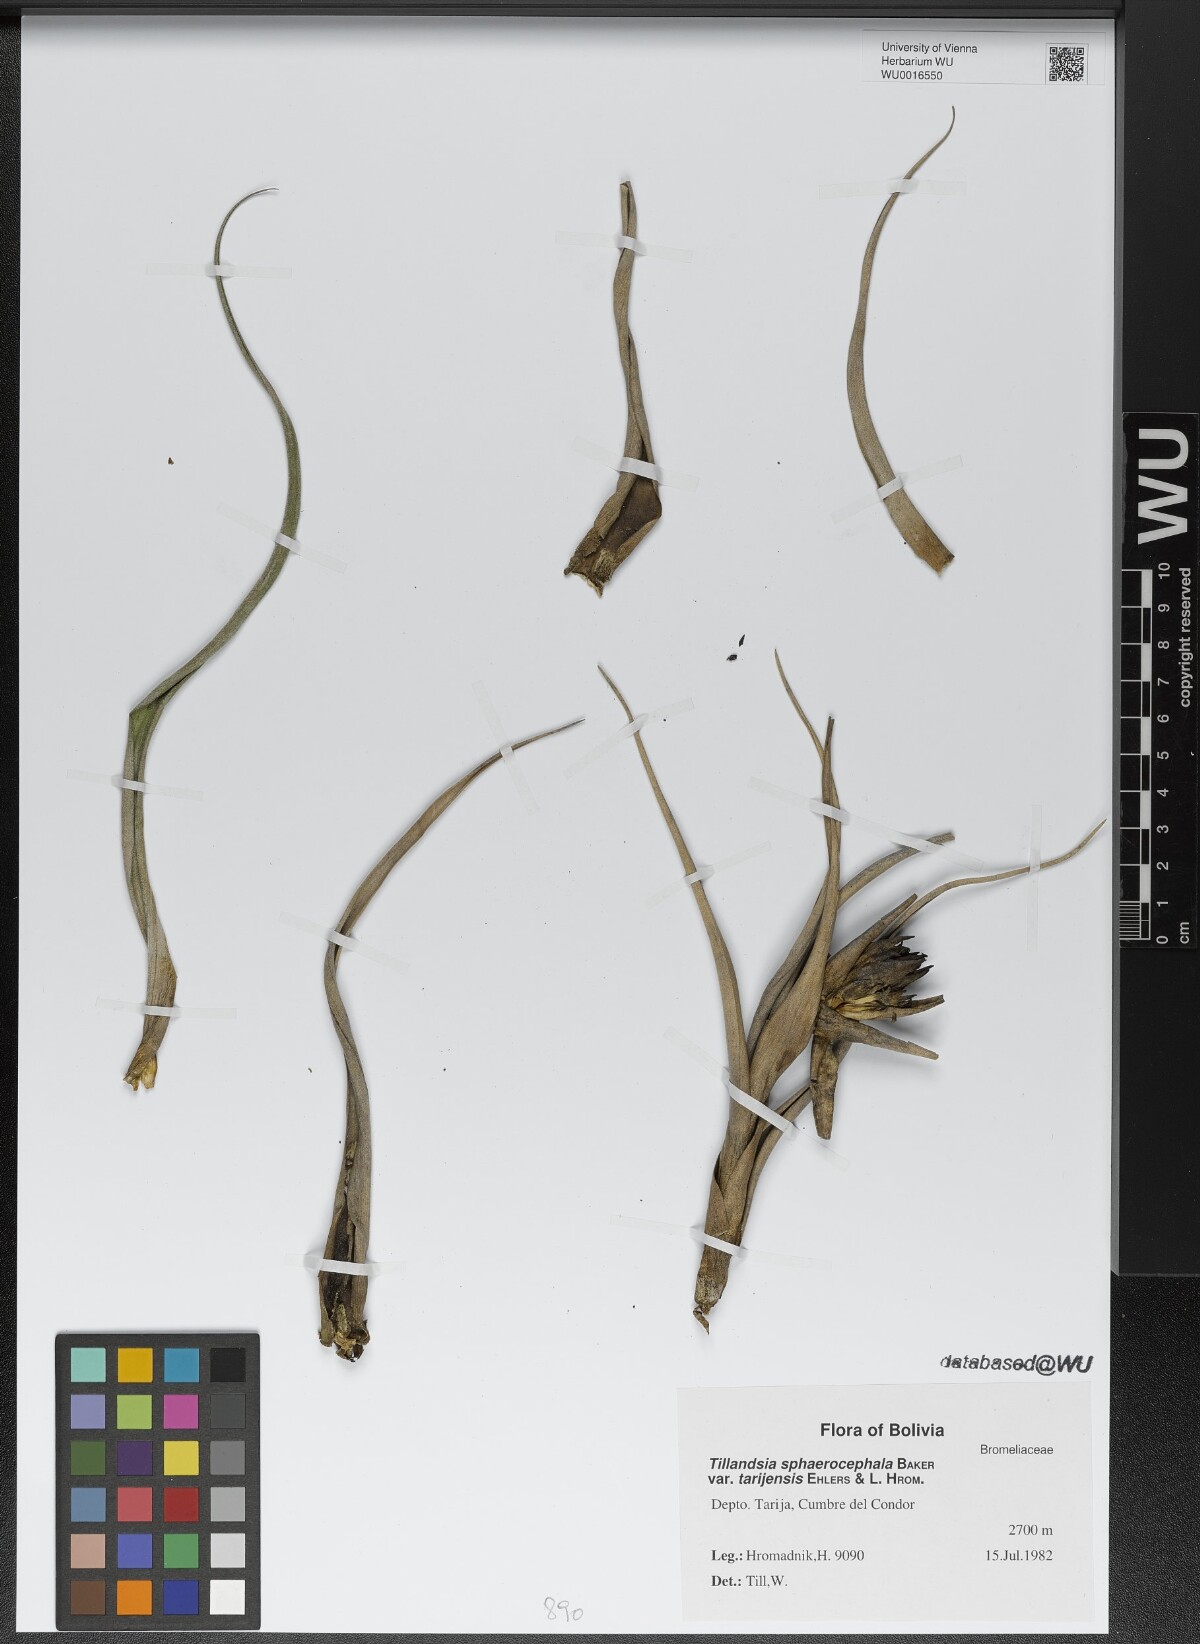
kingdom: Plantae
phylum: Tracheophyta
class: Liliopsida
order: Poales
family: Bromeliaceae
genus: Tillandsia
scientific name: Tillandsia sphaerocephala
